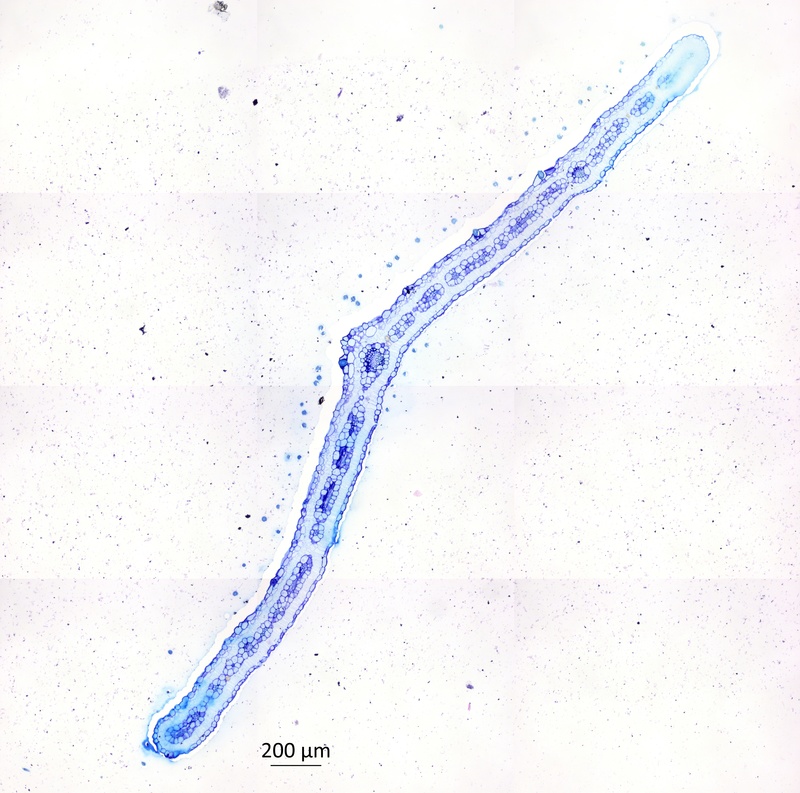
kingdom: Plantae
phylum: Tracheophyta
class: Magnoliopsida
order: Zygophyllales
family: Zygophyllaceae
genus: Tribulus
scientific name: Tribulus ranunculiflorus
